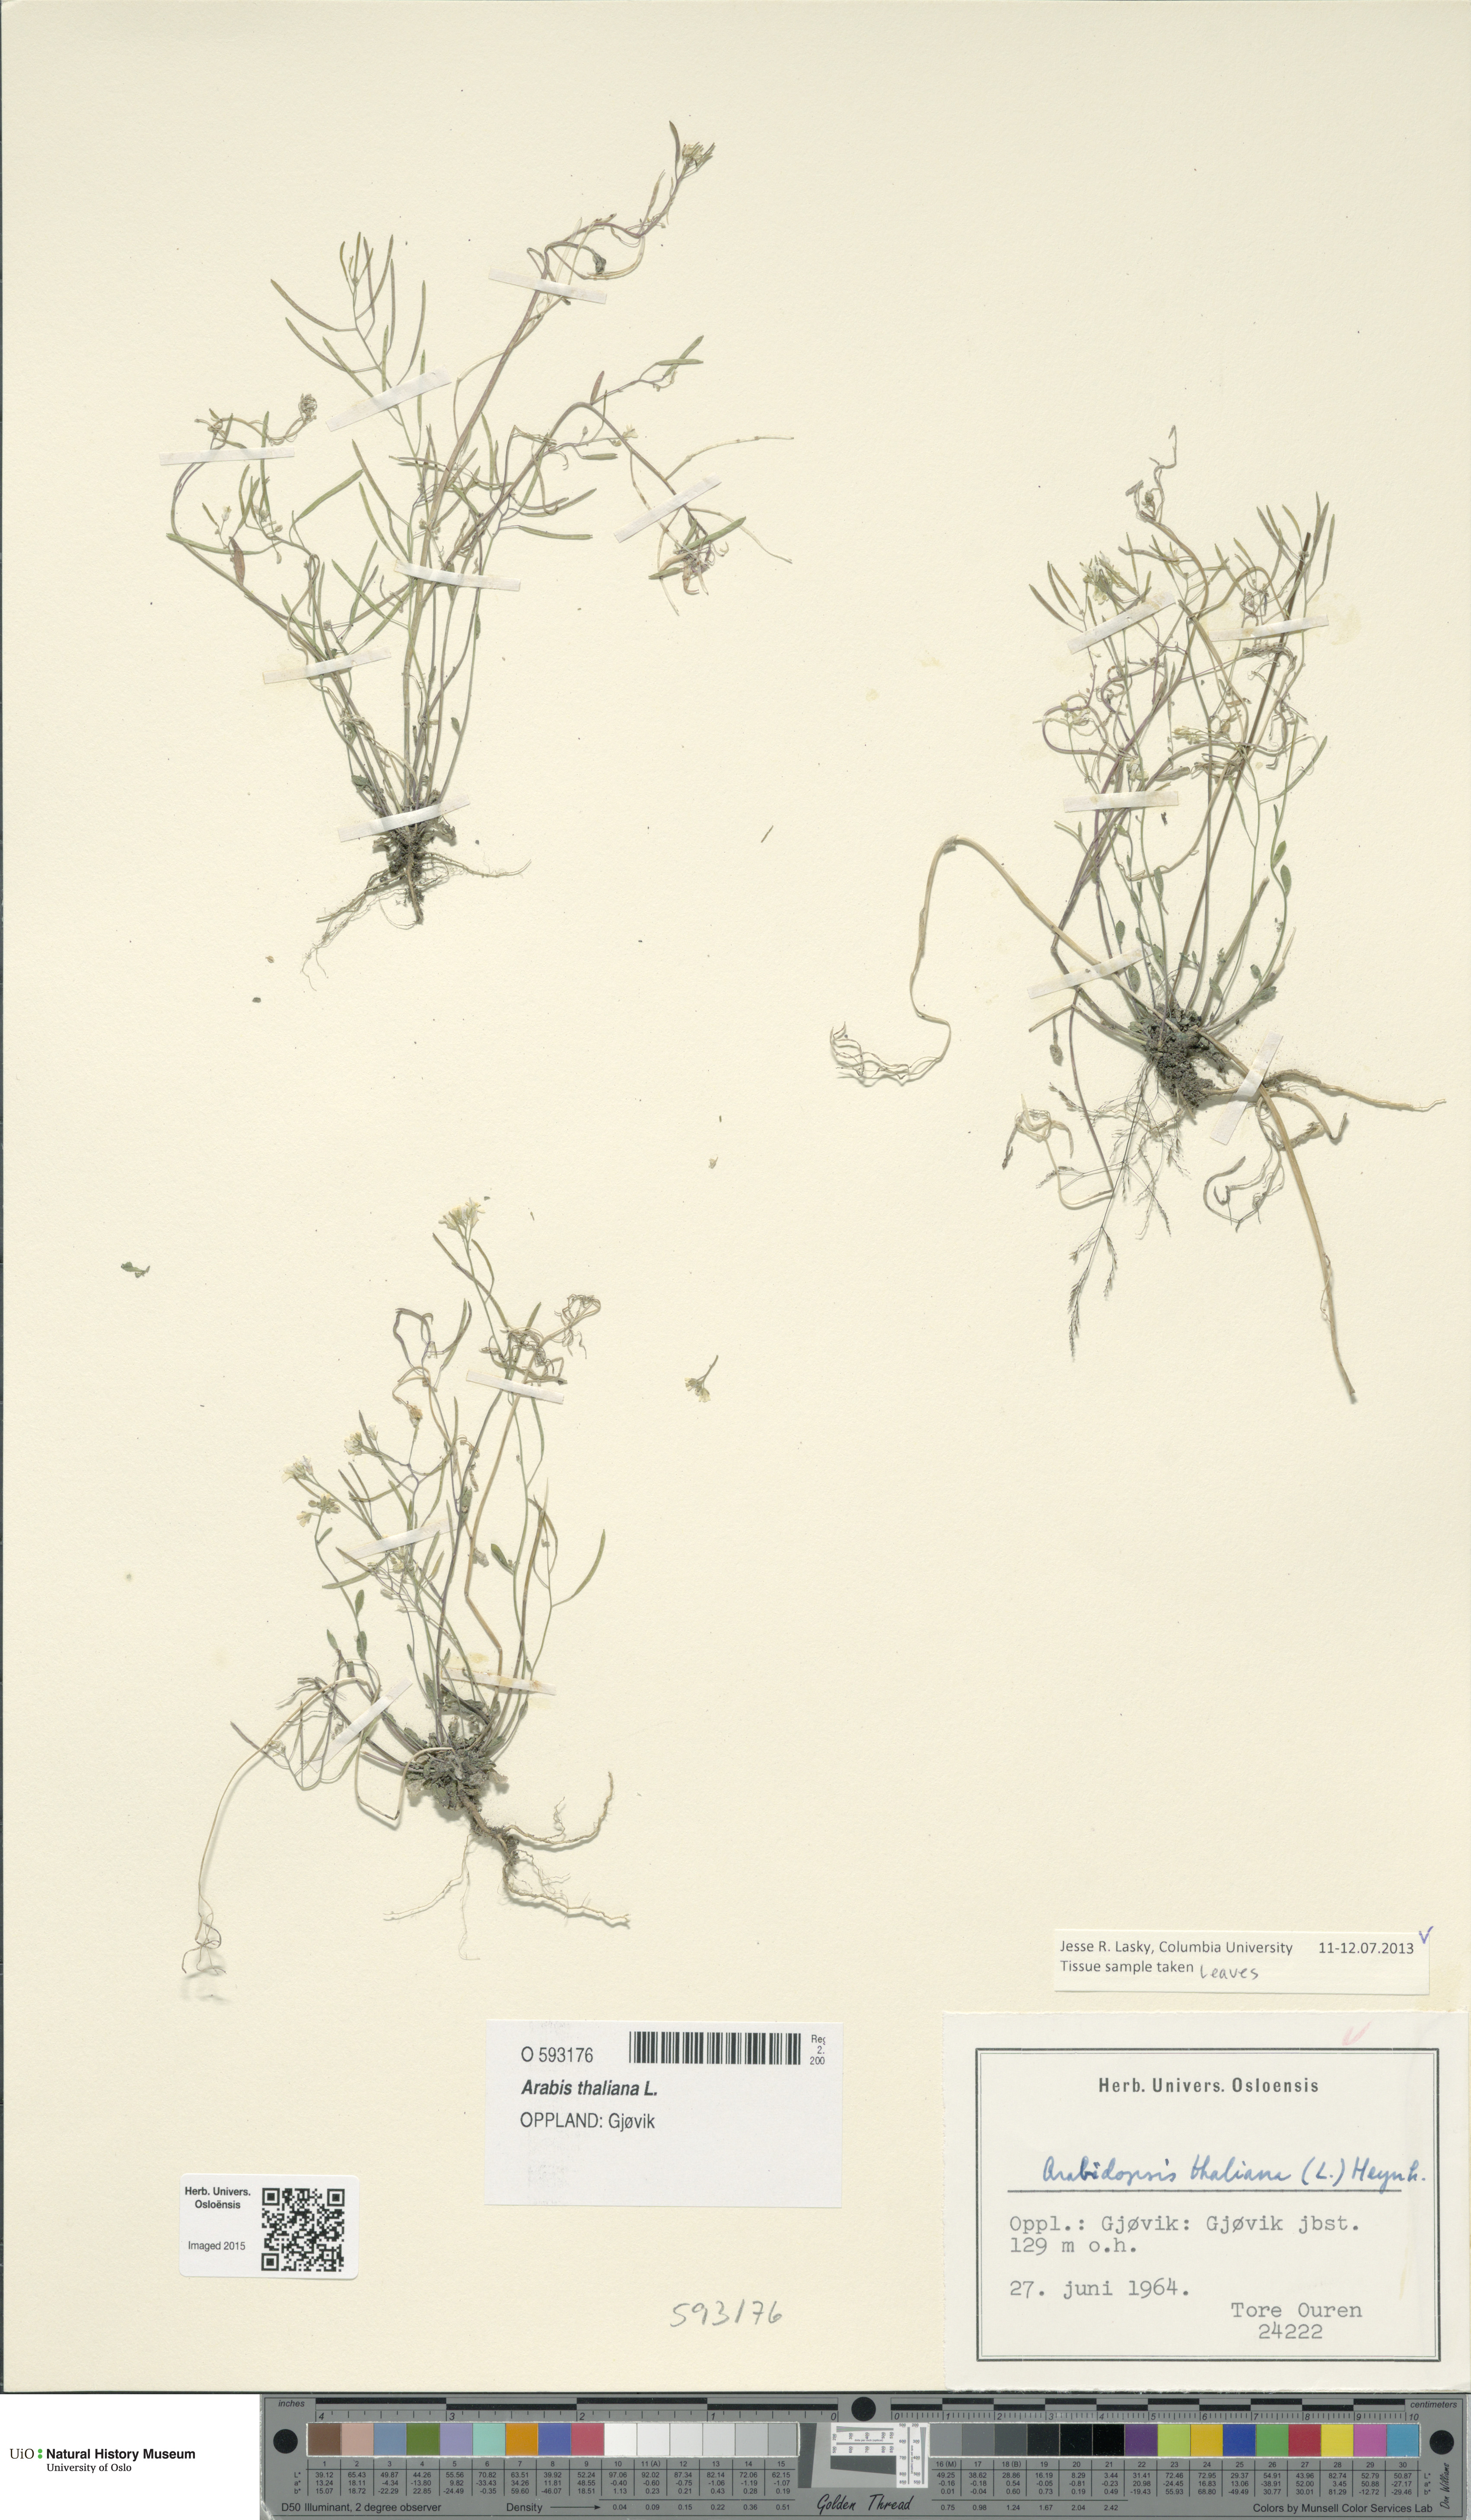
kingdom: Plantae
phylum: Tracheophyta
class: Magnoliopsida
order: Brassicales
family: Brassicaceae
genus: Arabidopsis
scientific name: Arabidopsis thaliana
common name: Thale cress
